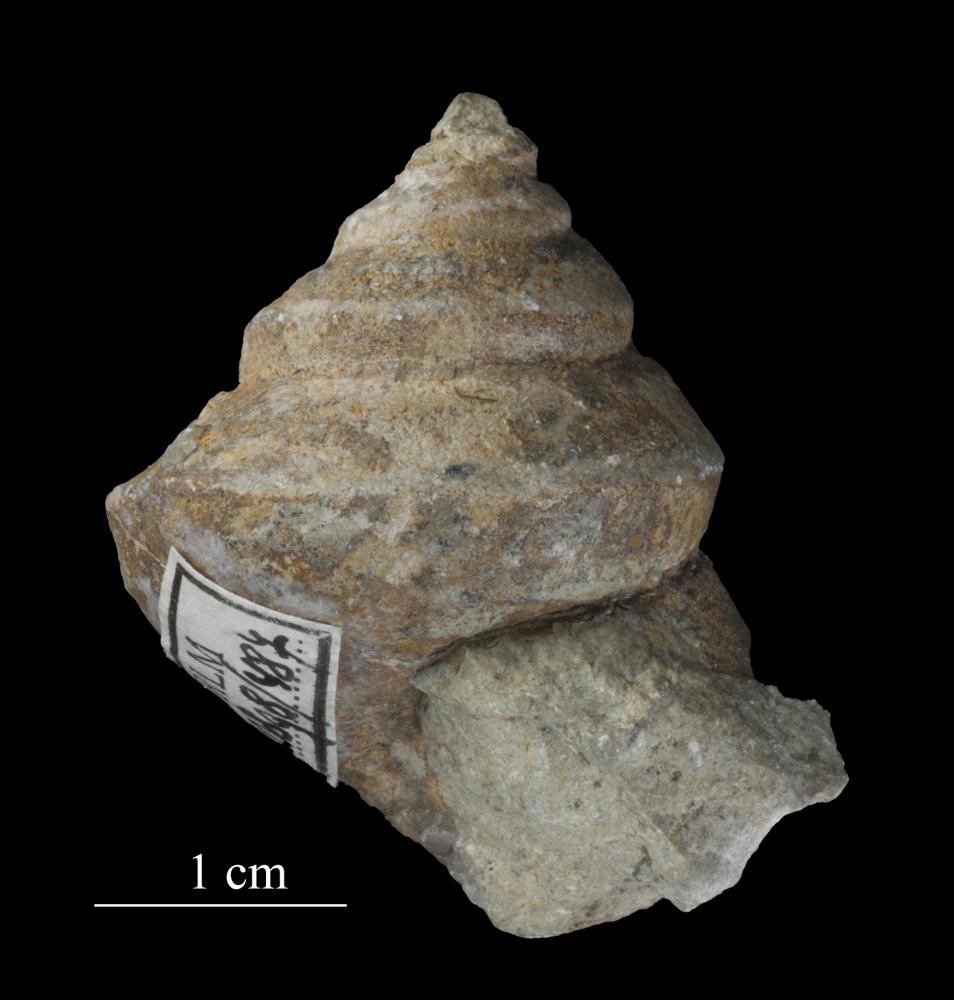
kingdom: Animalia
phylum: Mollusca
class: Gastropoda
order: Neogastropoda
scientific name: Neogastropoda
